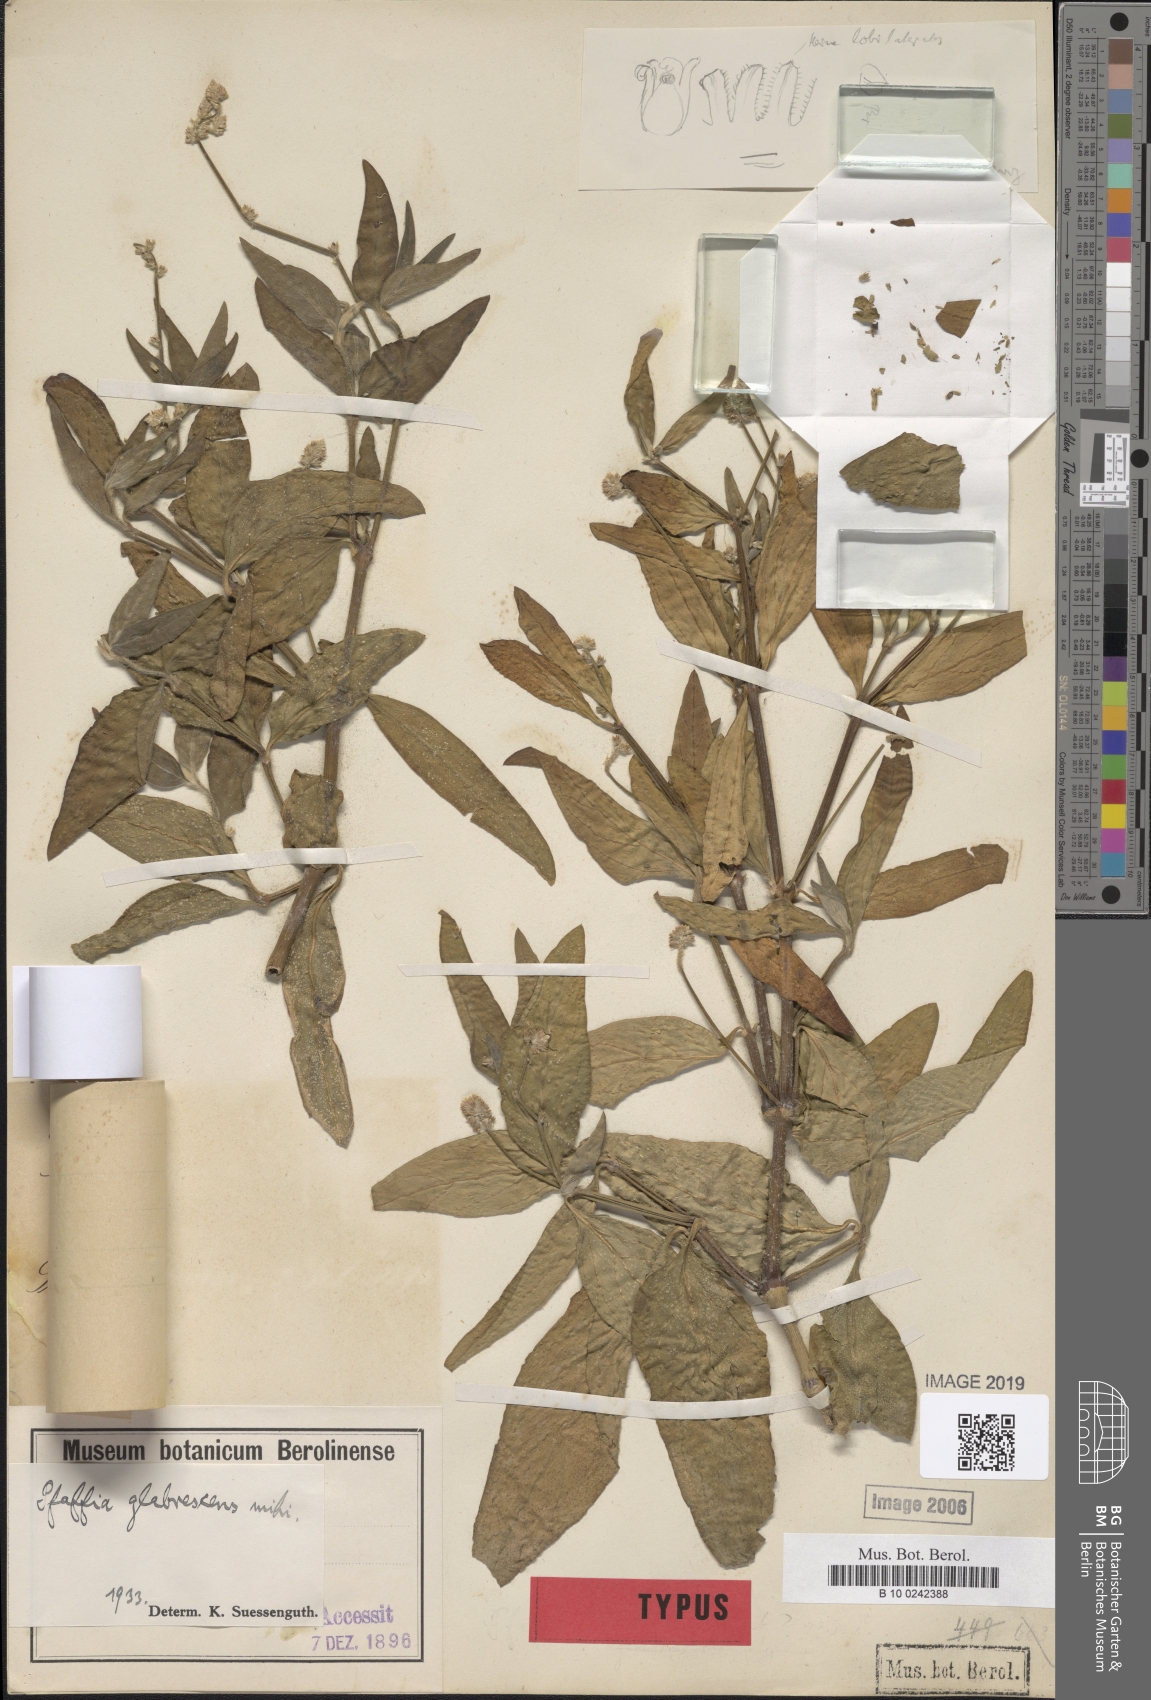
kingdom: Plantae
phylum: Tracheophyta
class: Magnoliopsida
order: Caryophyllales
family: Amaranthaceae
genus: Pfaffia
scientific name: Pfaffia glomerata
